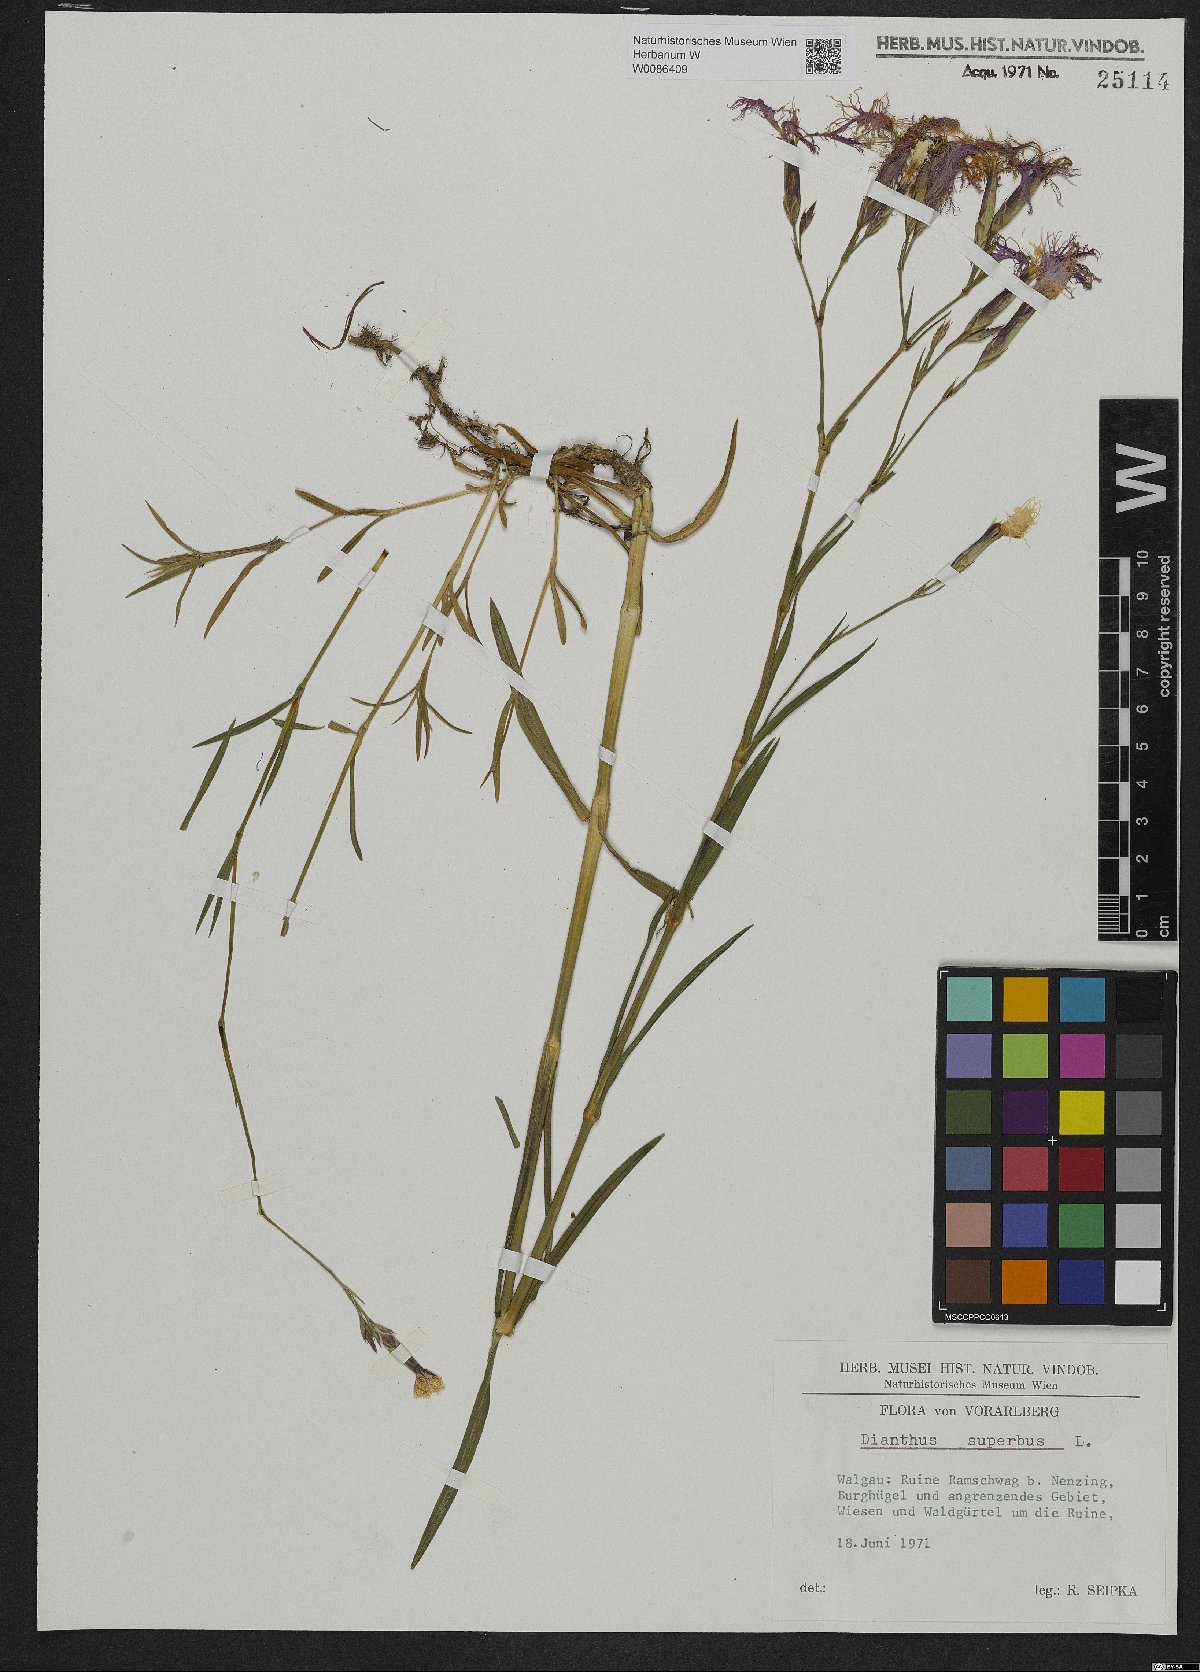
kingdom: Plantae
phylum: Tracheophyta
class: Magnoliopsida
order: Caryophyllales
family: Caryophyllaceae
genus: Dianthus
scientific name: Dianthus superbus
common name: Fringed pink
